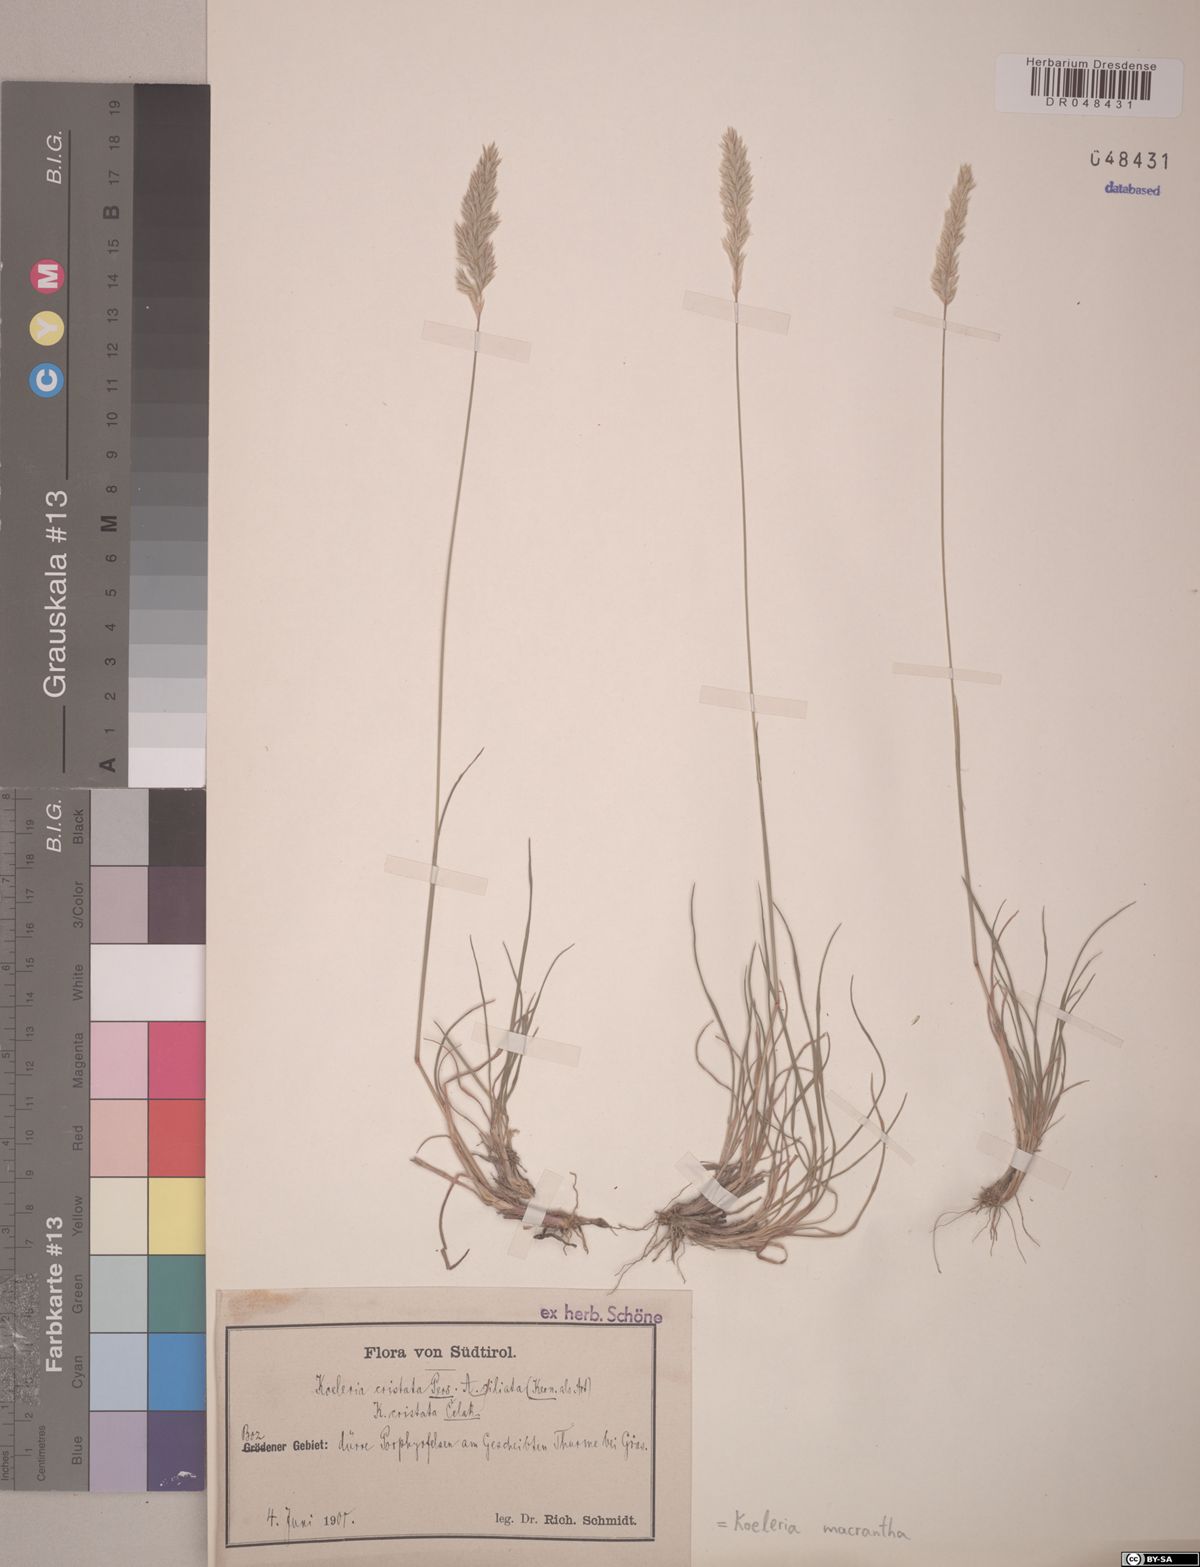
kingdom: Plantae
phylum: Tracheophyta
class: Liliopsida
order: Poales
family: Poaceae
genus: Koeleria
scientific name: Koeleria macrantha
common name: Crested hair-grass
